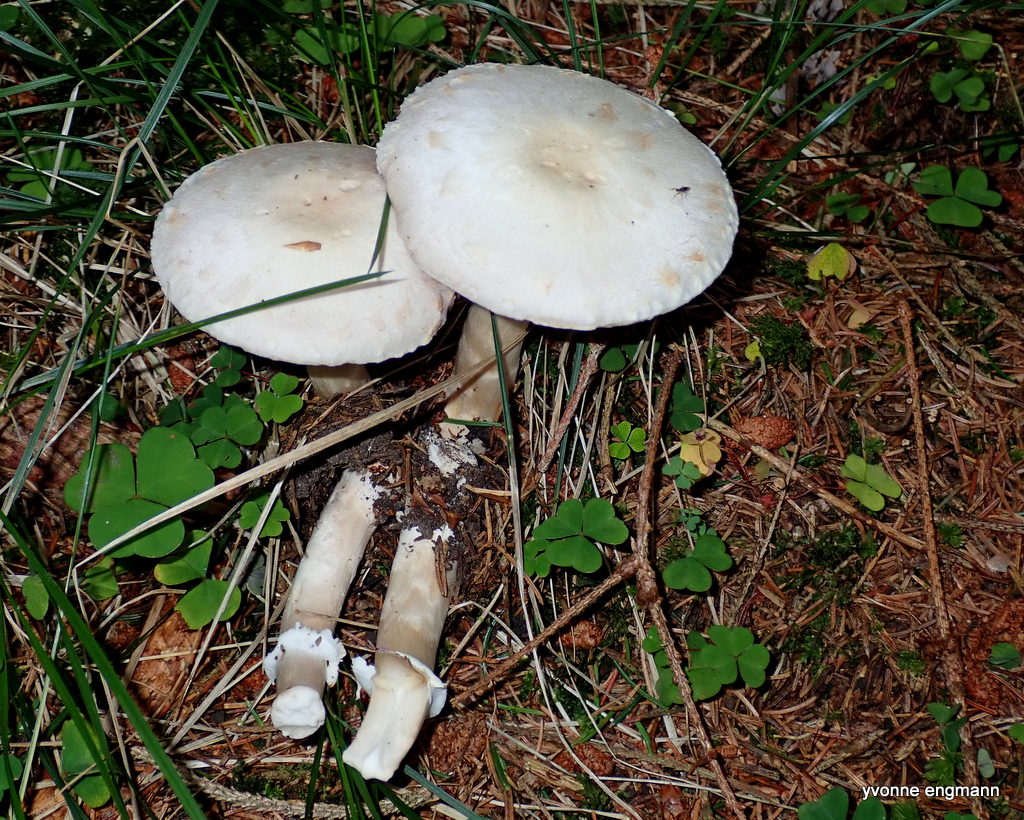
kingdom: Fungi
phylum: Basidiomycota
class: Agaricomycetes
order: Agaricales
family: Agaricaceae
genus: Agaricus
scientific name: Agaricus
